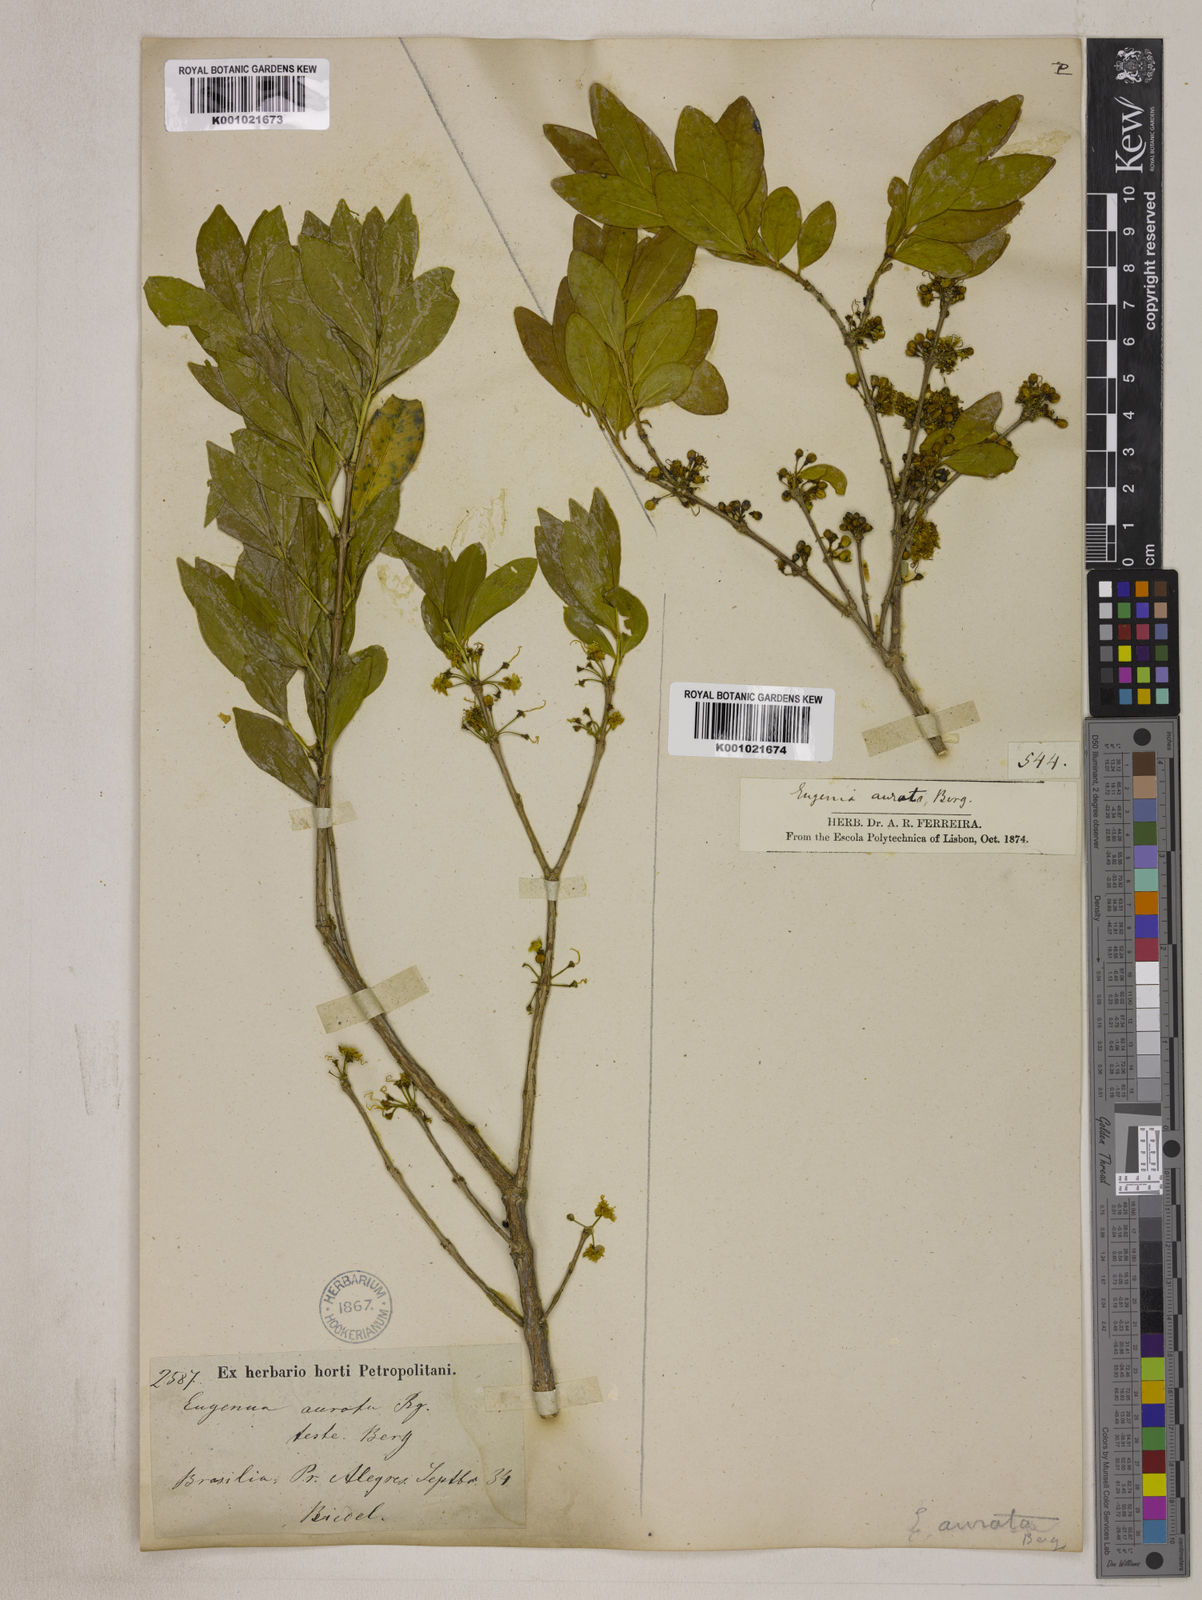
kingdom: Plantae
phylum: Tracheophyta
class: Magnoliopsida
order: Myrtales
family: Myrtaceae
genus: Eugenia
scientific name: Eugenia aurata
